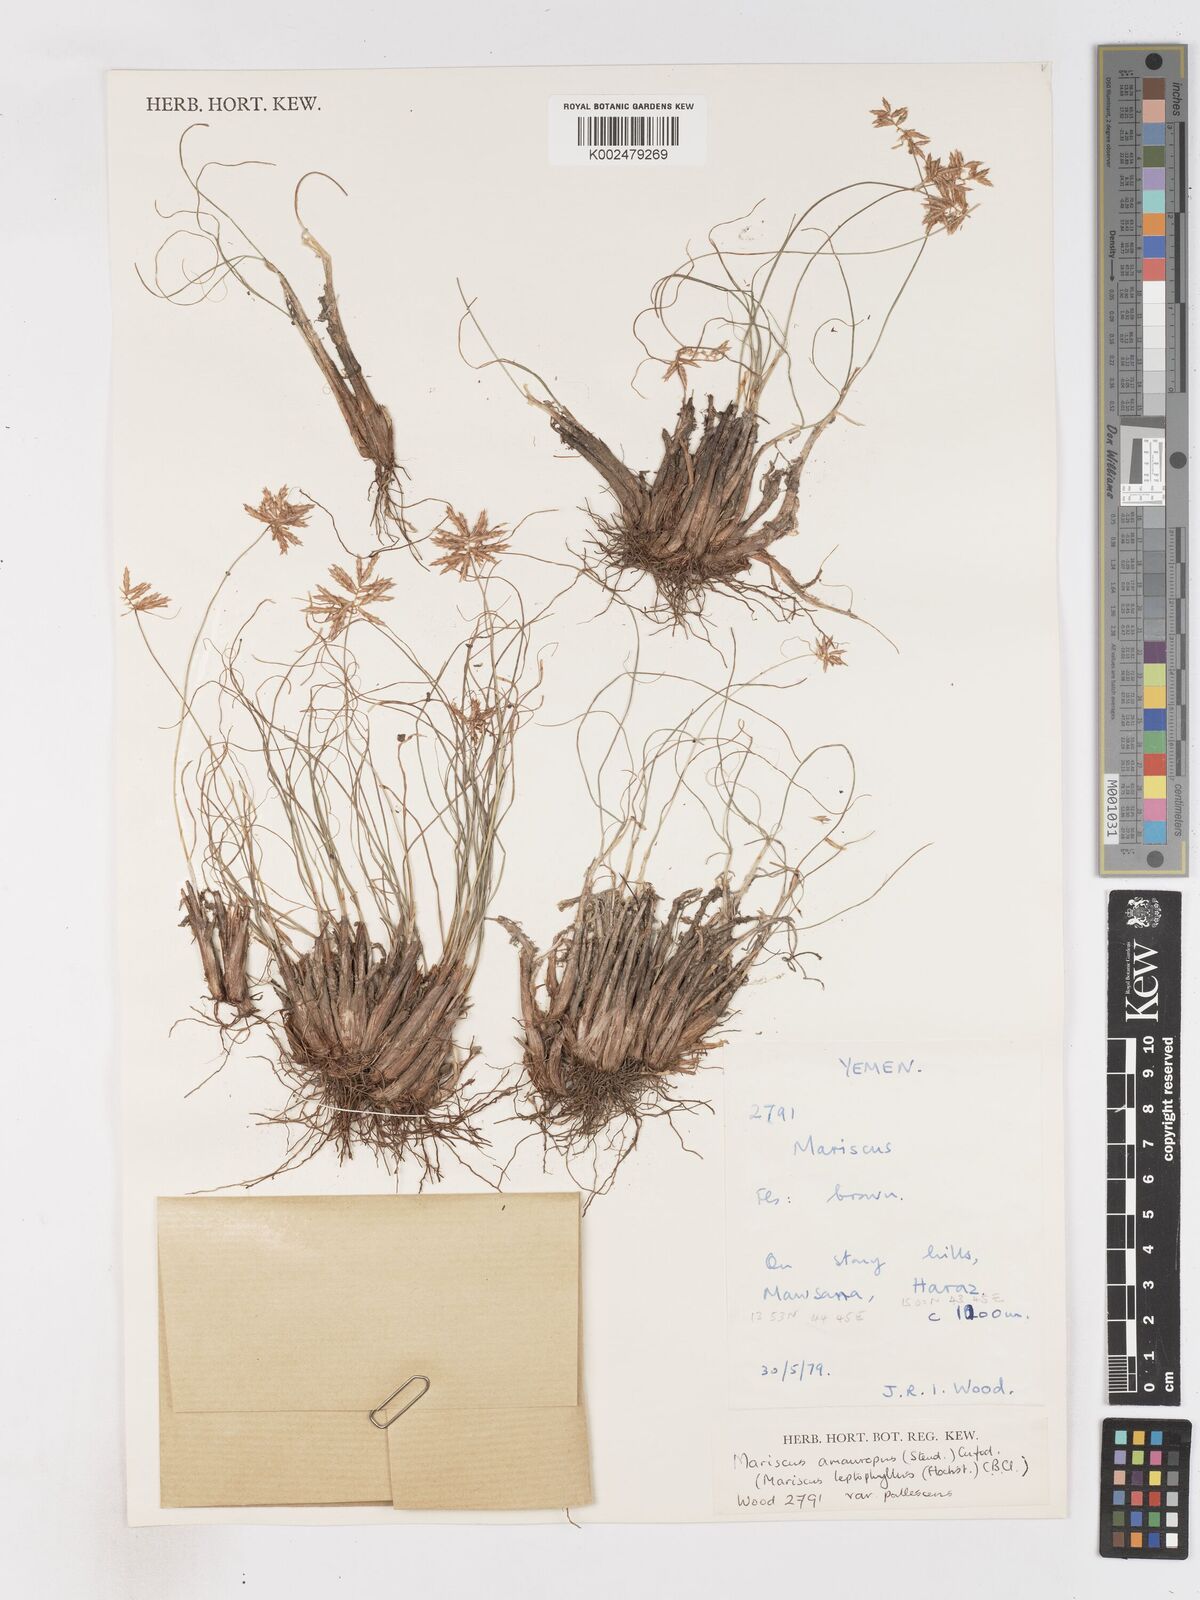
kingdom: Plantae
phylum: Tracheophyta
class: Liliopsida
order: Poales
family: Cyperaceae
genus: Cyperus
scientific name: Cyperus cruentus
